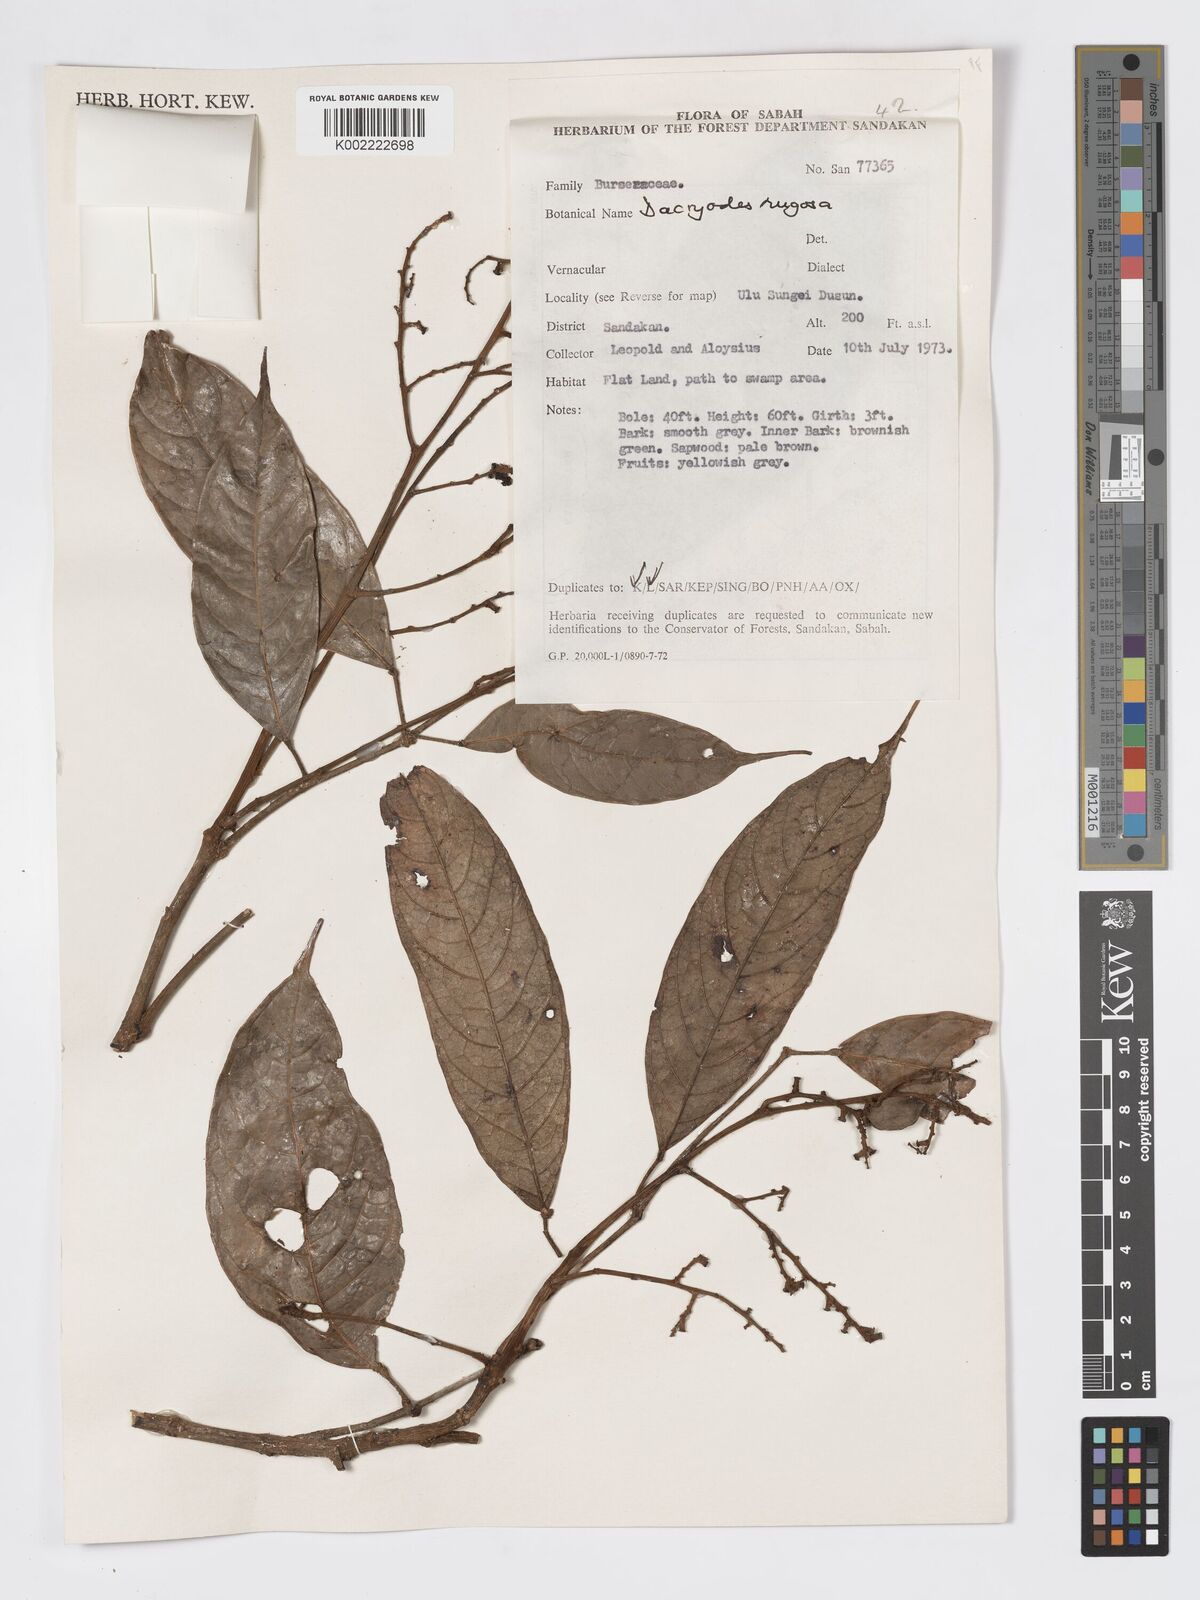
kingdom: Plantae
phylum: Tracheophyta
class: Magnoliopsida
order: Sapindales
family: Burseraceae
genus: Dacryodes
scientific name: Dacryodes rugosa
